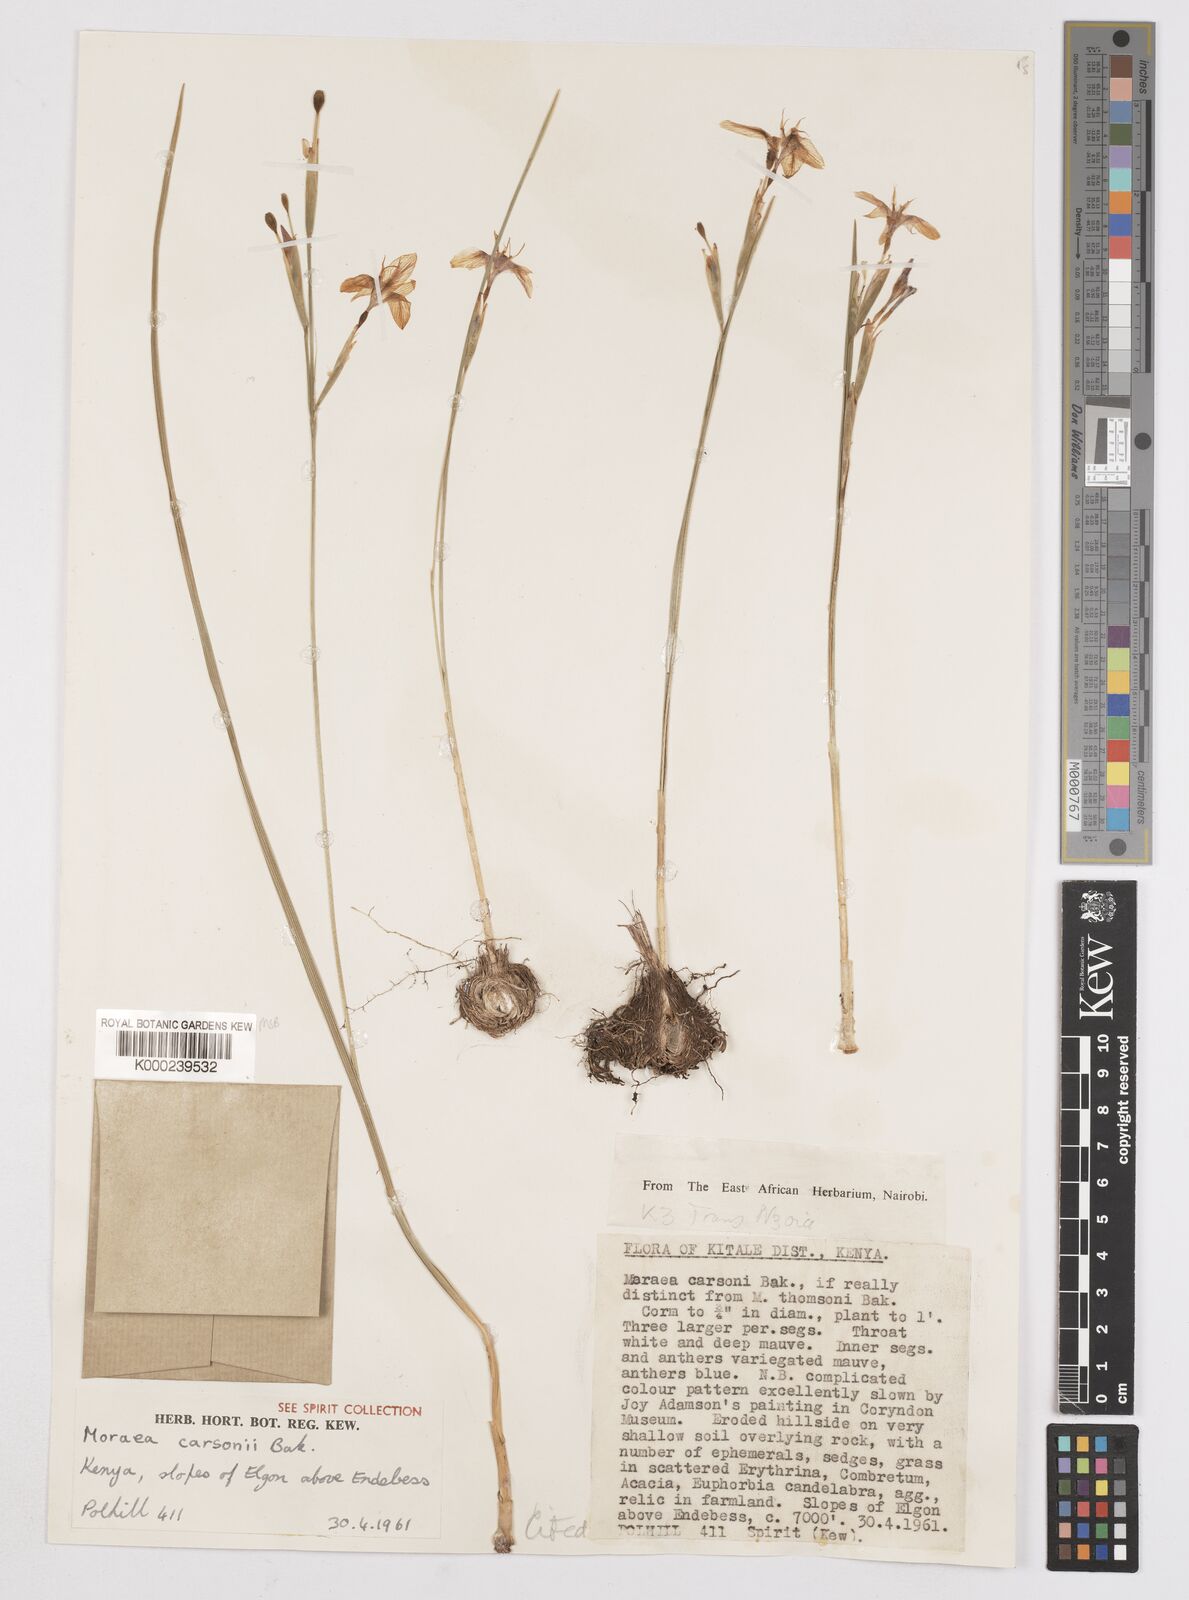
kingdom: Plantae
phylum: Tracheophyta
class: Liliopsida
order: Asparagales
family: Iridaceae
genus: Moraea
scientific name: Moraea
